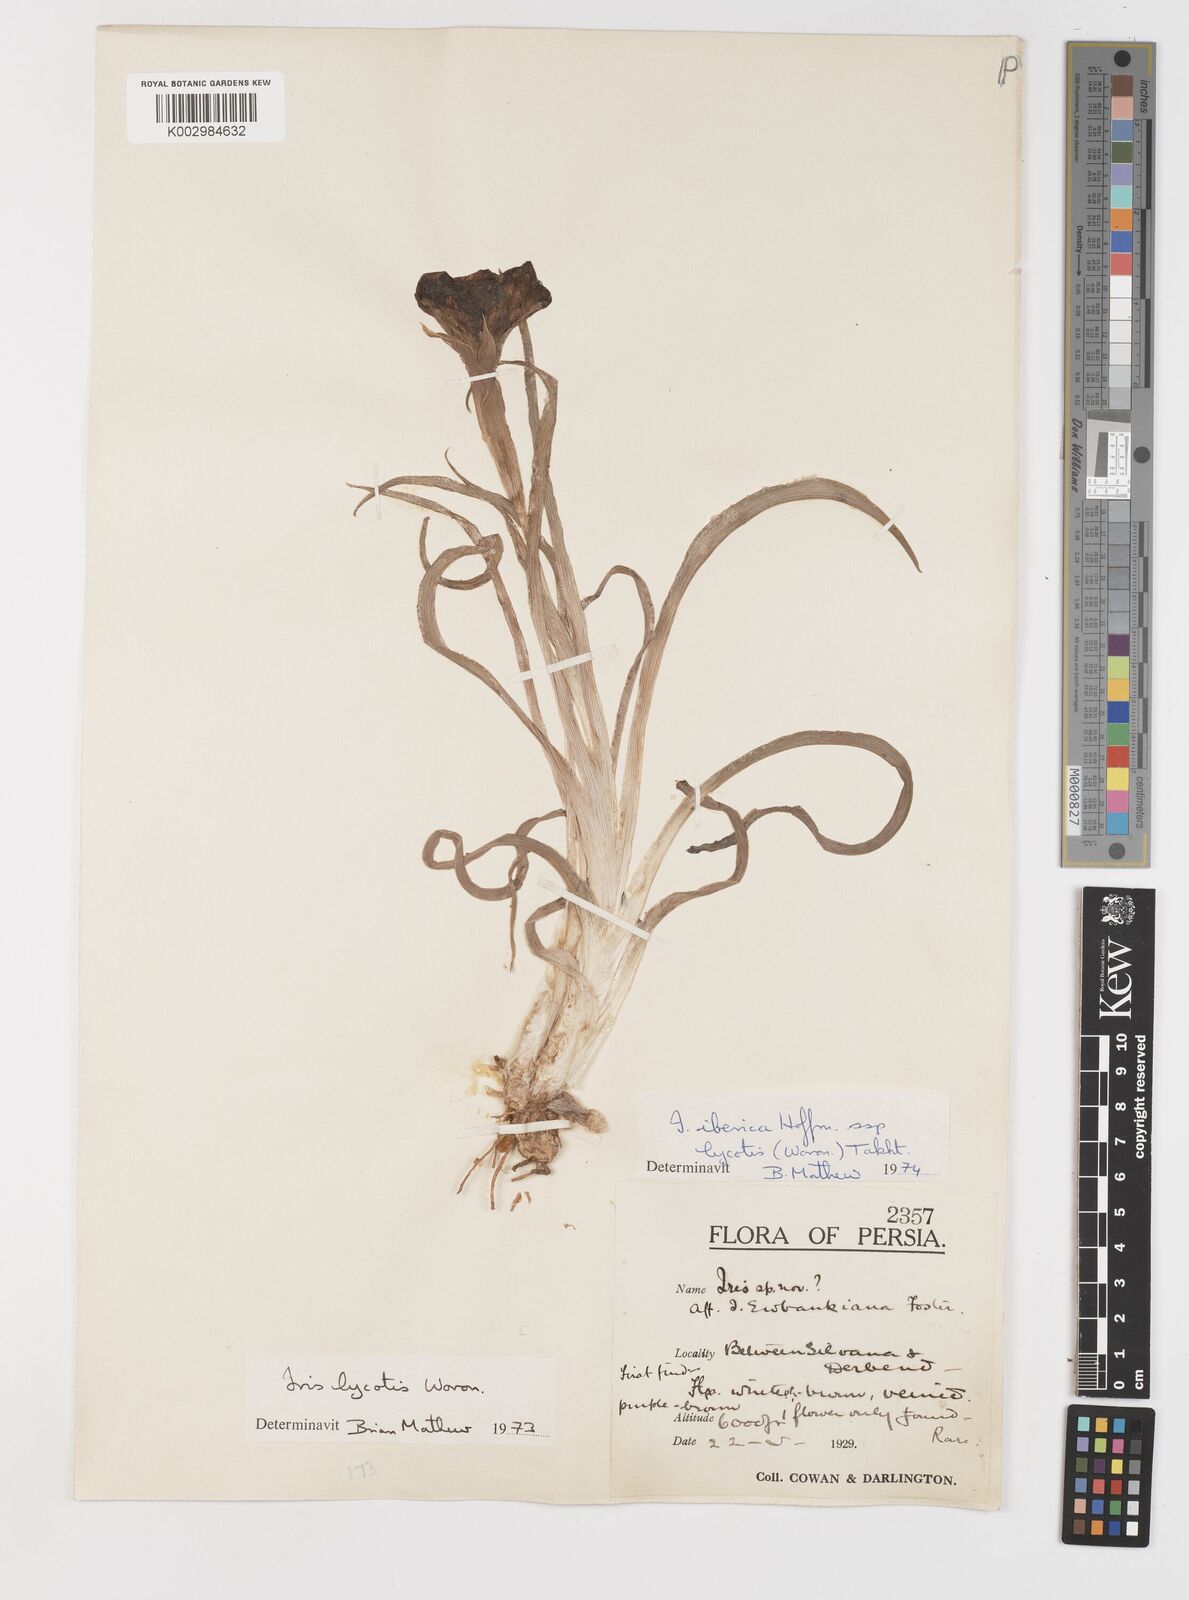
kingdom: Plantae
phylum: Tracheophyta
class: Liliopsida
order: Asparagales
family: Iridaceae
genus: Iris
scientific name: Iris lycotis
